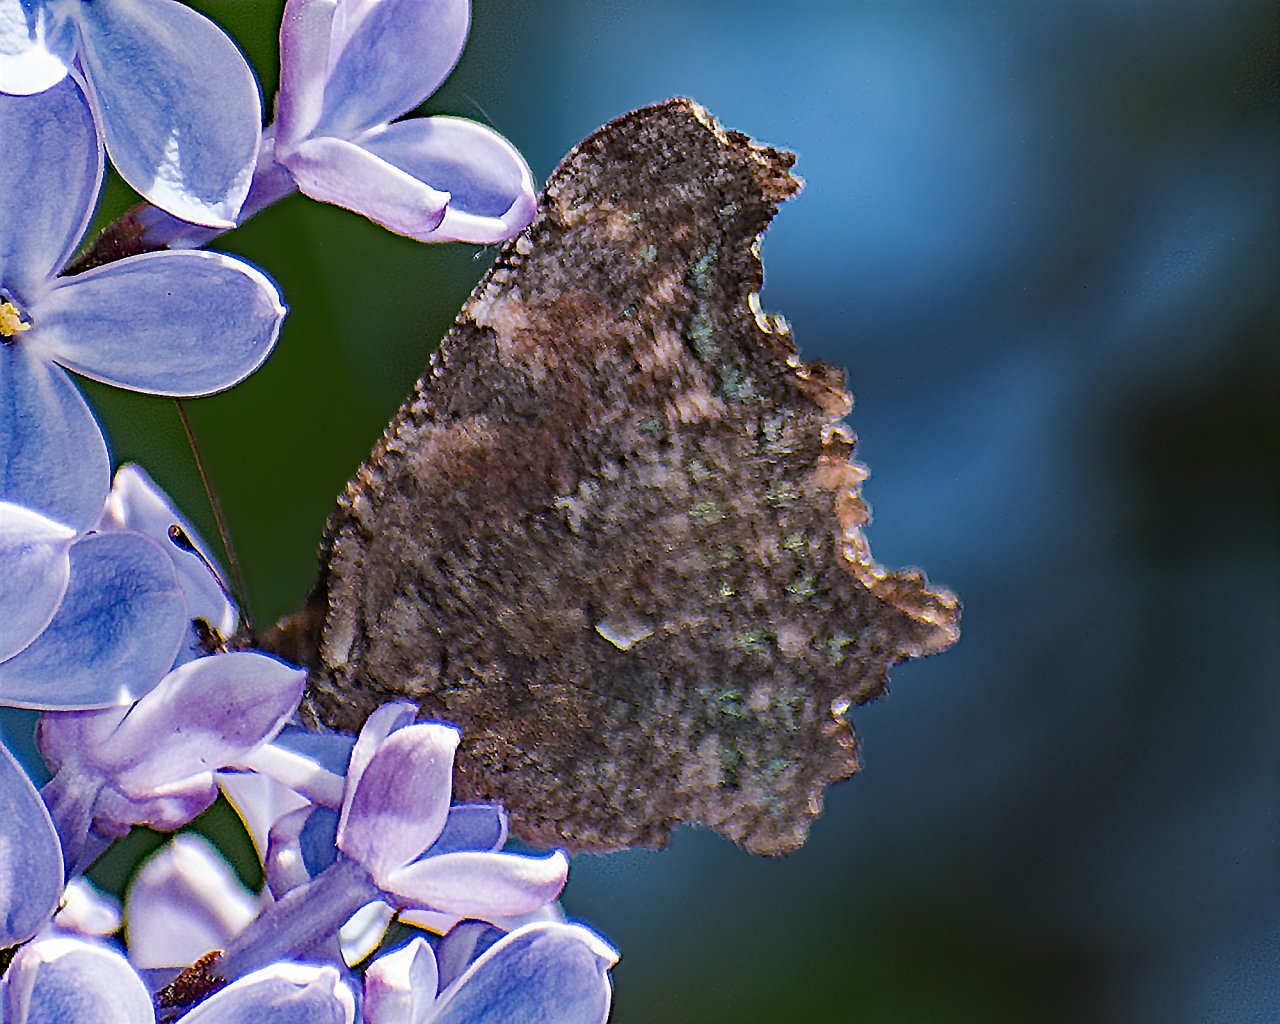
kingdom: Animalia
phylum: Arthropoda
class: Insecta
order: Lepidoptera
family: Nymphalidae
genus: Polygonia
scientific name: Polygonia faunus
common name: Green Comma
